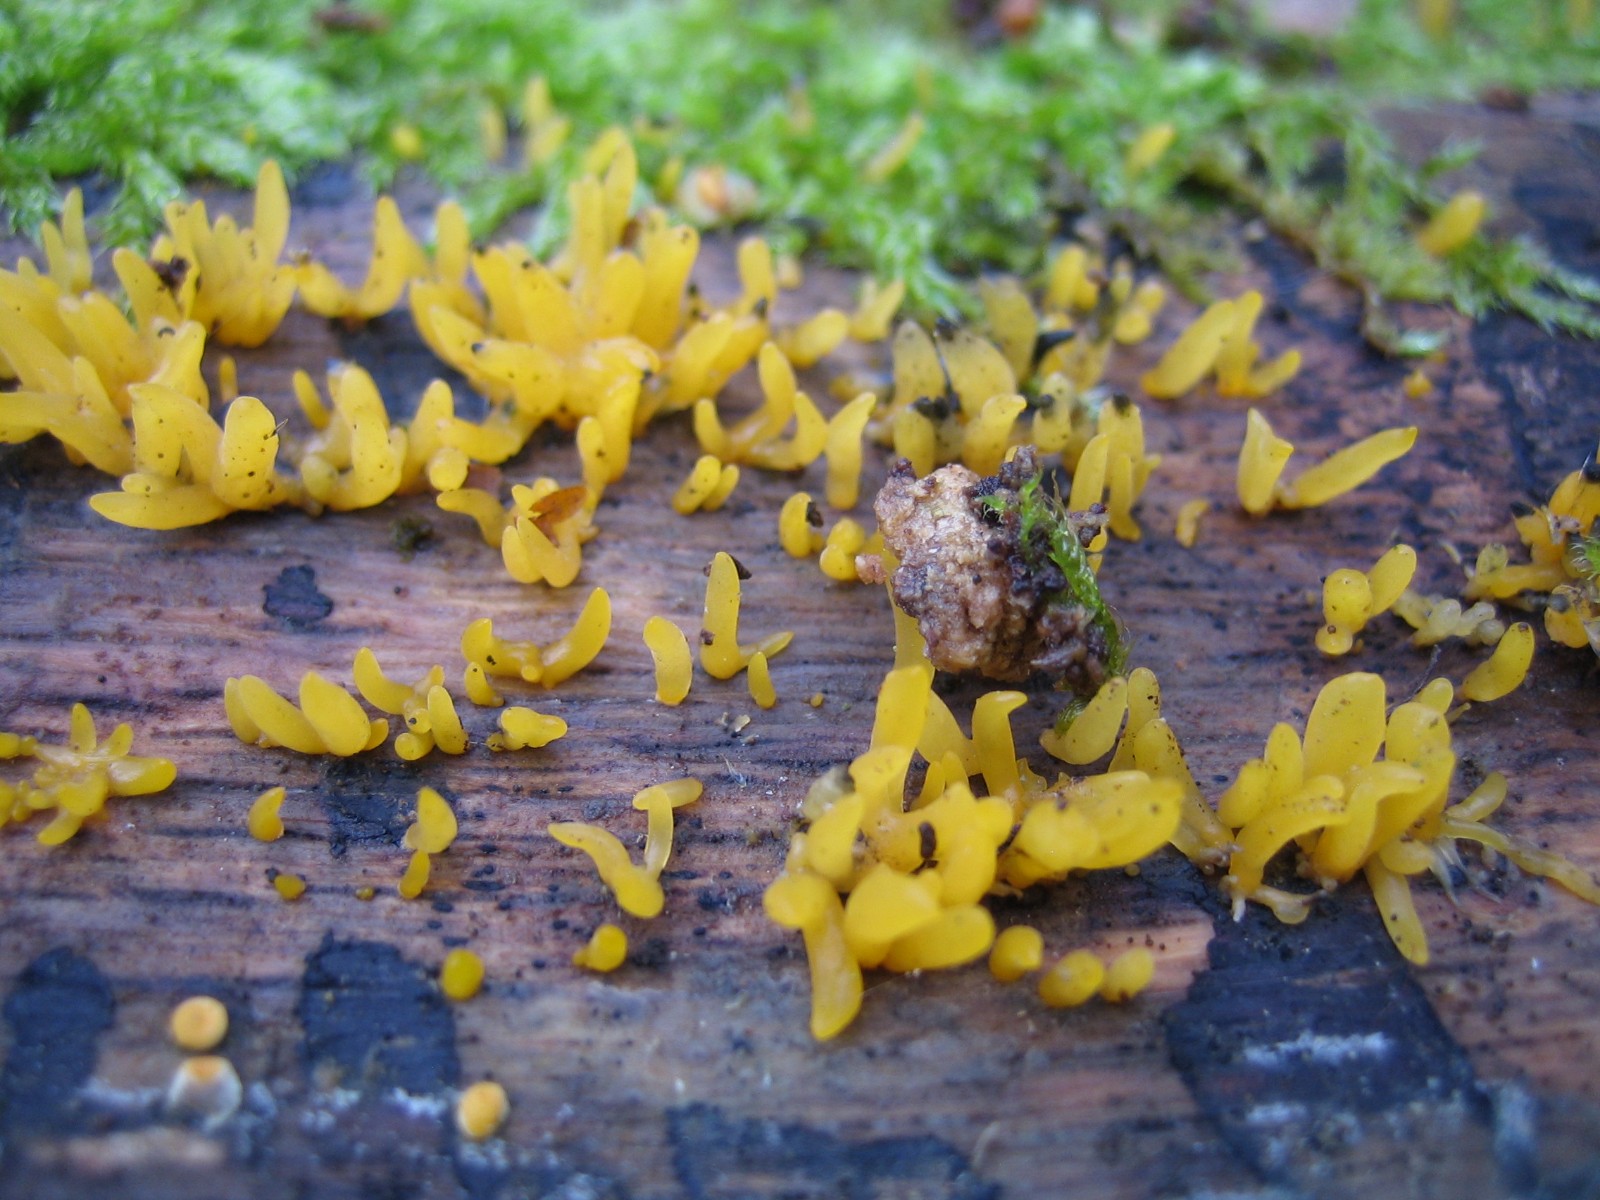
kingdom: Fungi
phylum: Basidiomycota
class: Dacrymycetes
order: Dacrymycetales
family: Dacrymycetaceae
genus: Calocera
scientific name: Calocera cornea
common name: liden guldgaffel
